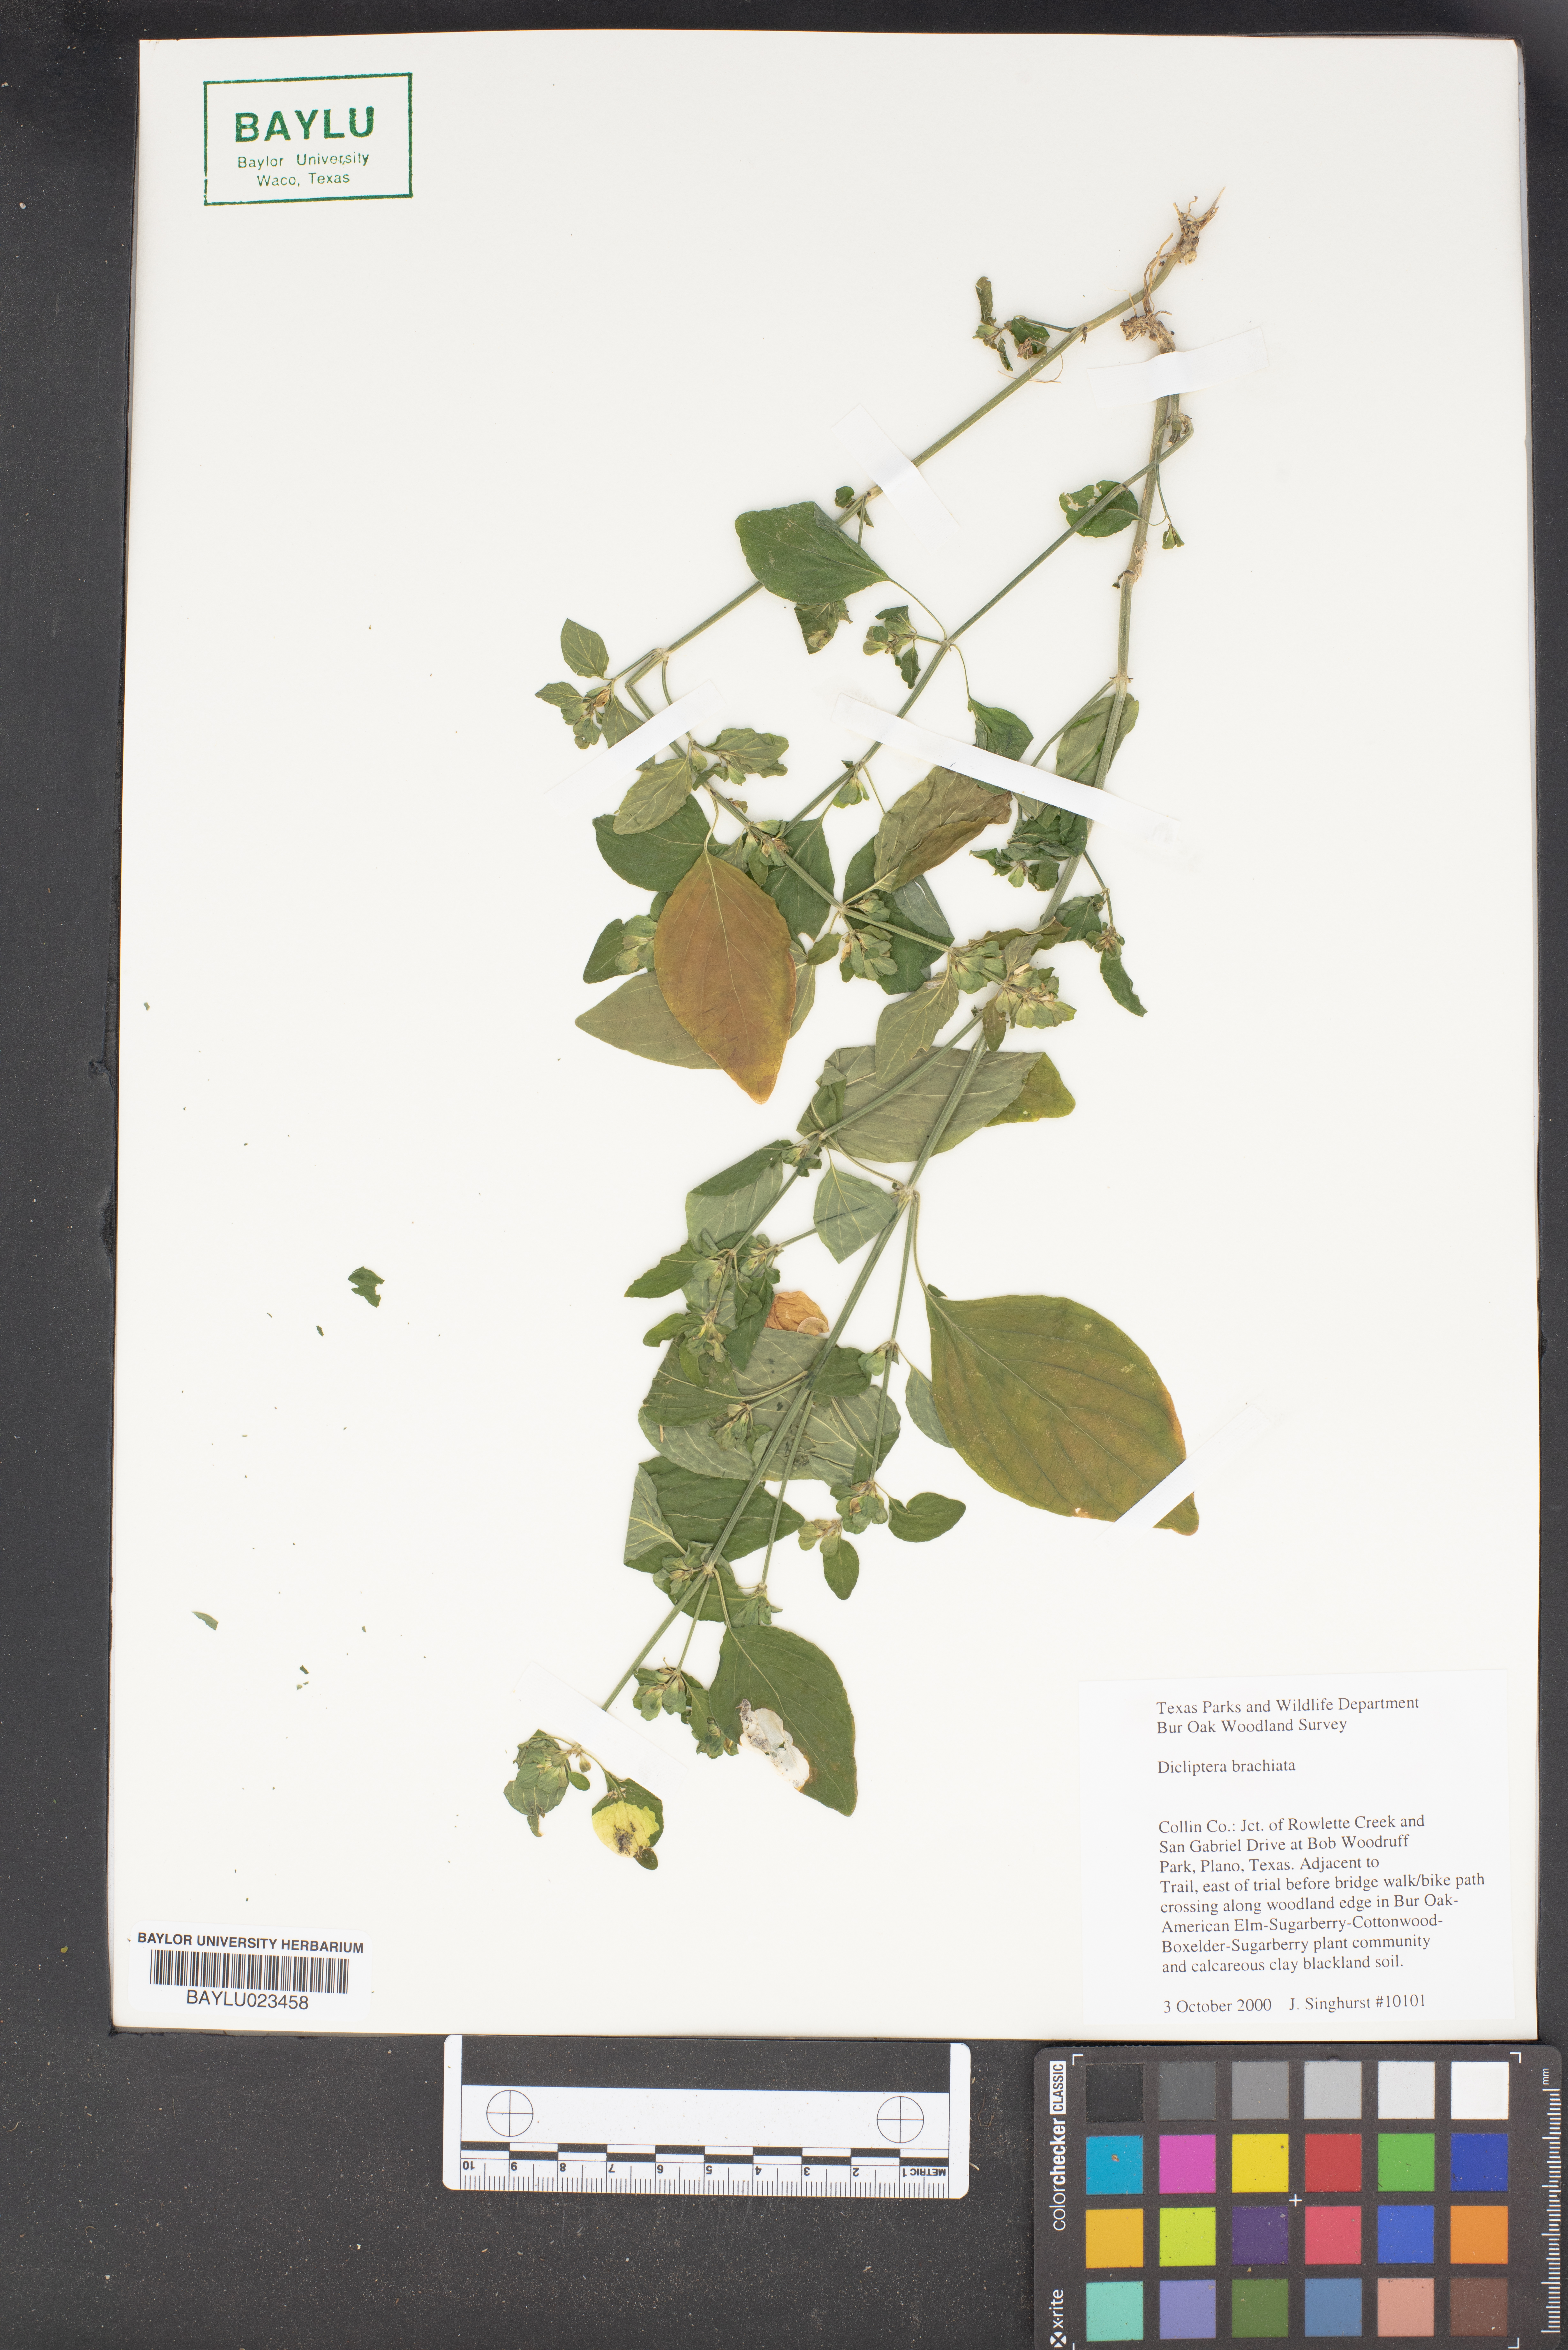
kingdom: Plantae
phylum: Tracheophyta
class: Magnoliopsida
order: Lamiales
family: Acanthaceae
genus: Dicliptera
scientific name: Dicliptera brachiata
